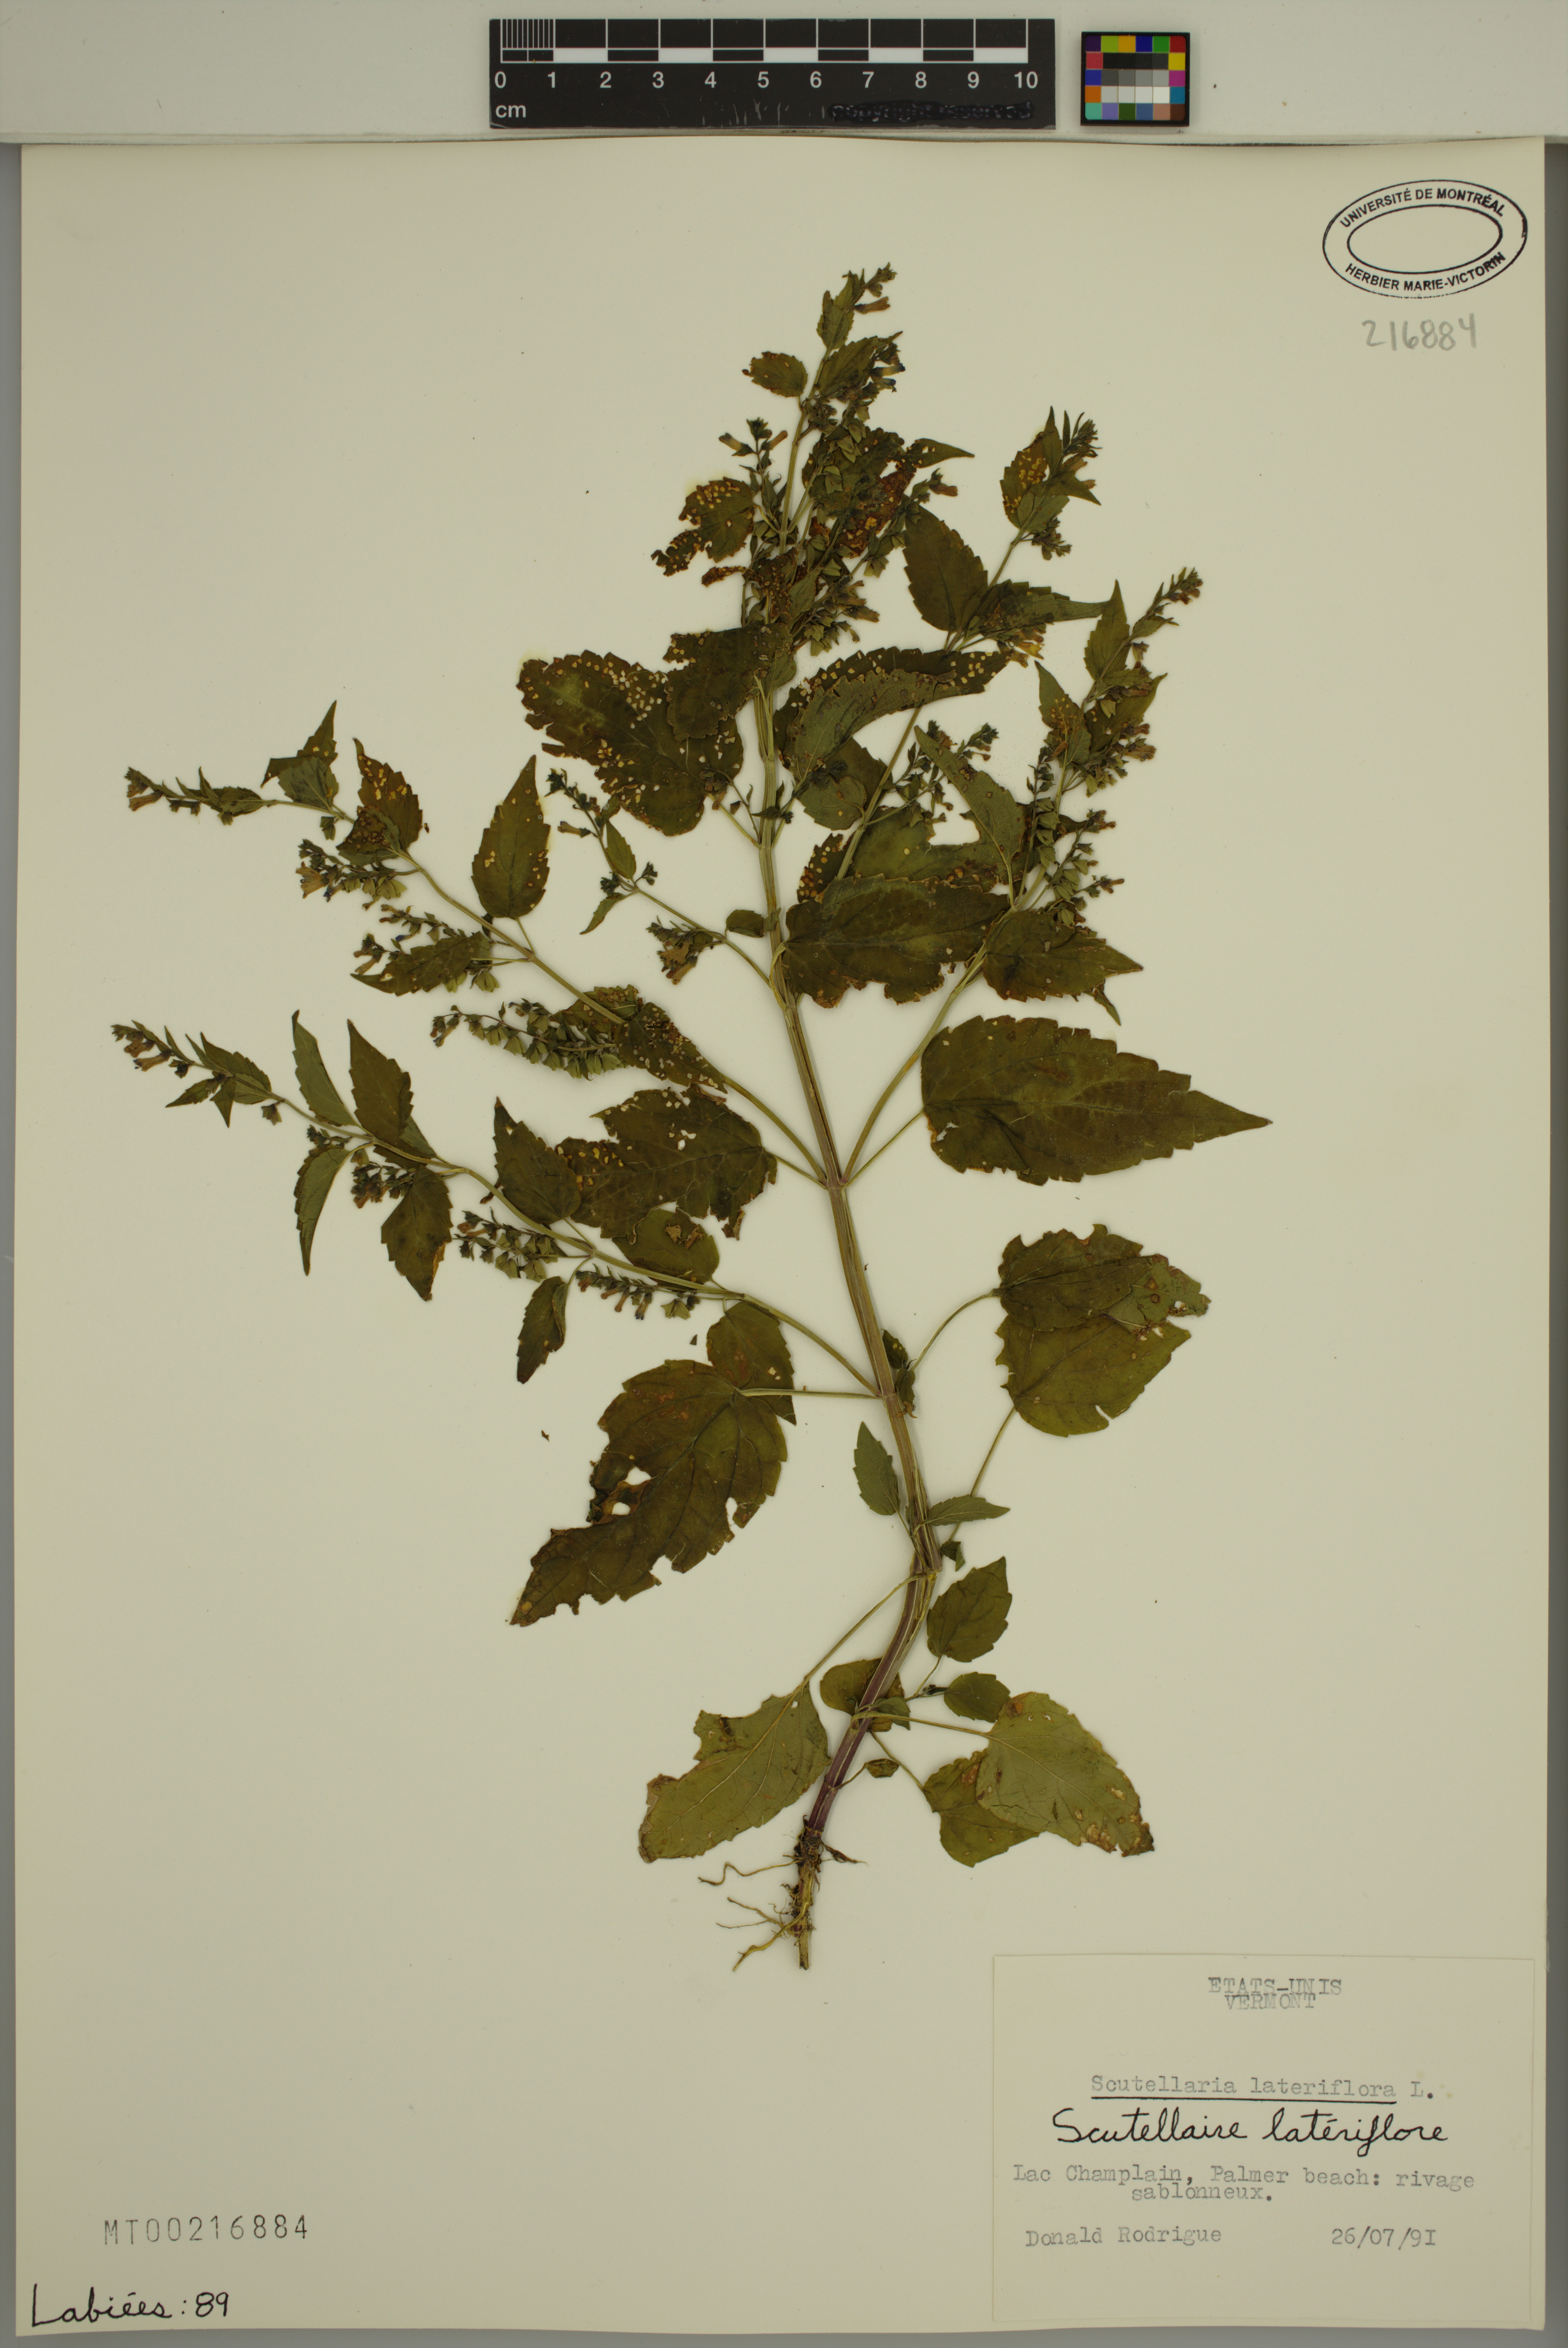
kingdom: Plantae
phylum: Tracheophyta
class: Magnoliopsida
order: Lamiales
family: Lamiaceae
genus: Scutellaria
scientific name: Scutellaria lateriflora
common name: Blue skullcap
